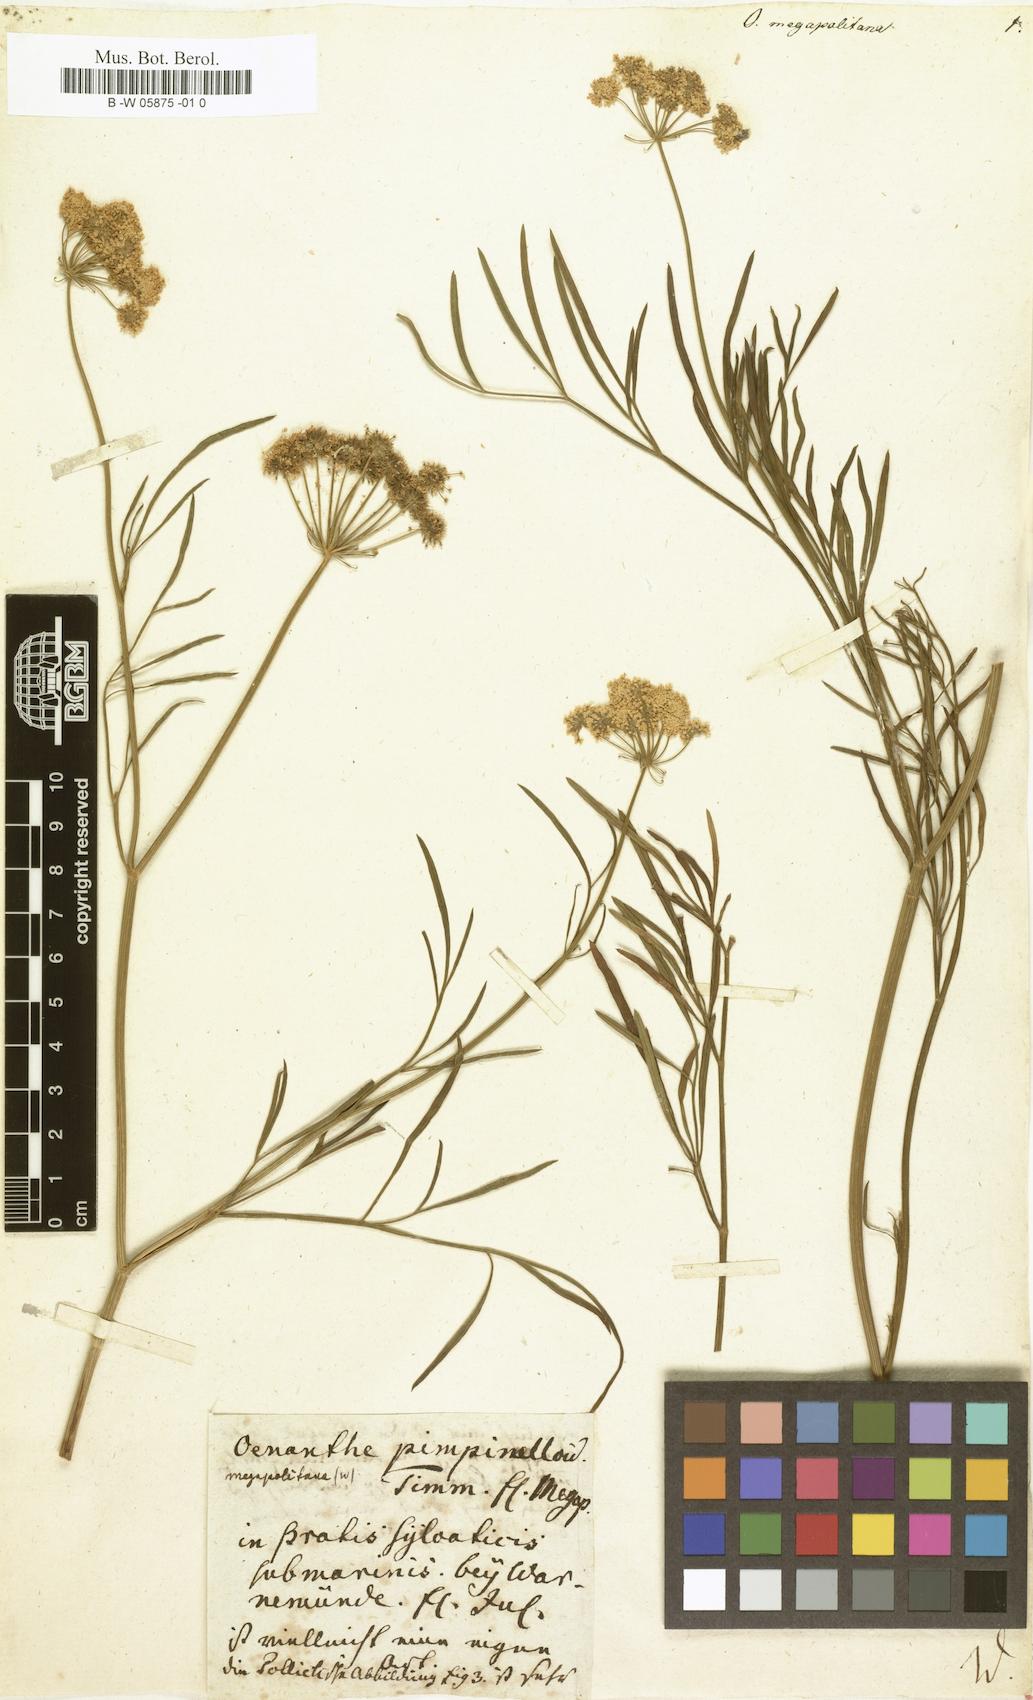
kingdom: Plantae
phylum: Tracheophyta
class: Magnoliopsida
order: Apiales
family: Apiaceae
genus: Oenanthe
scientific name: Oenanthe lachenalii
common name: Parsley water-dropwort
